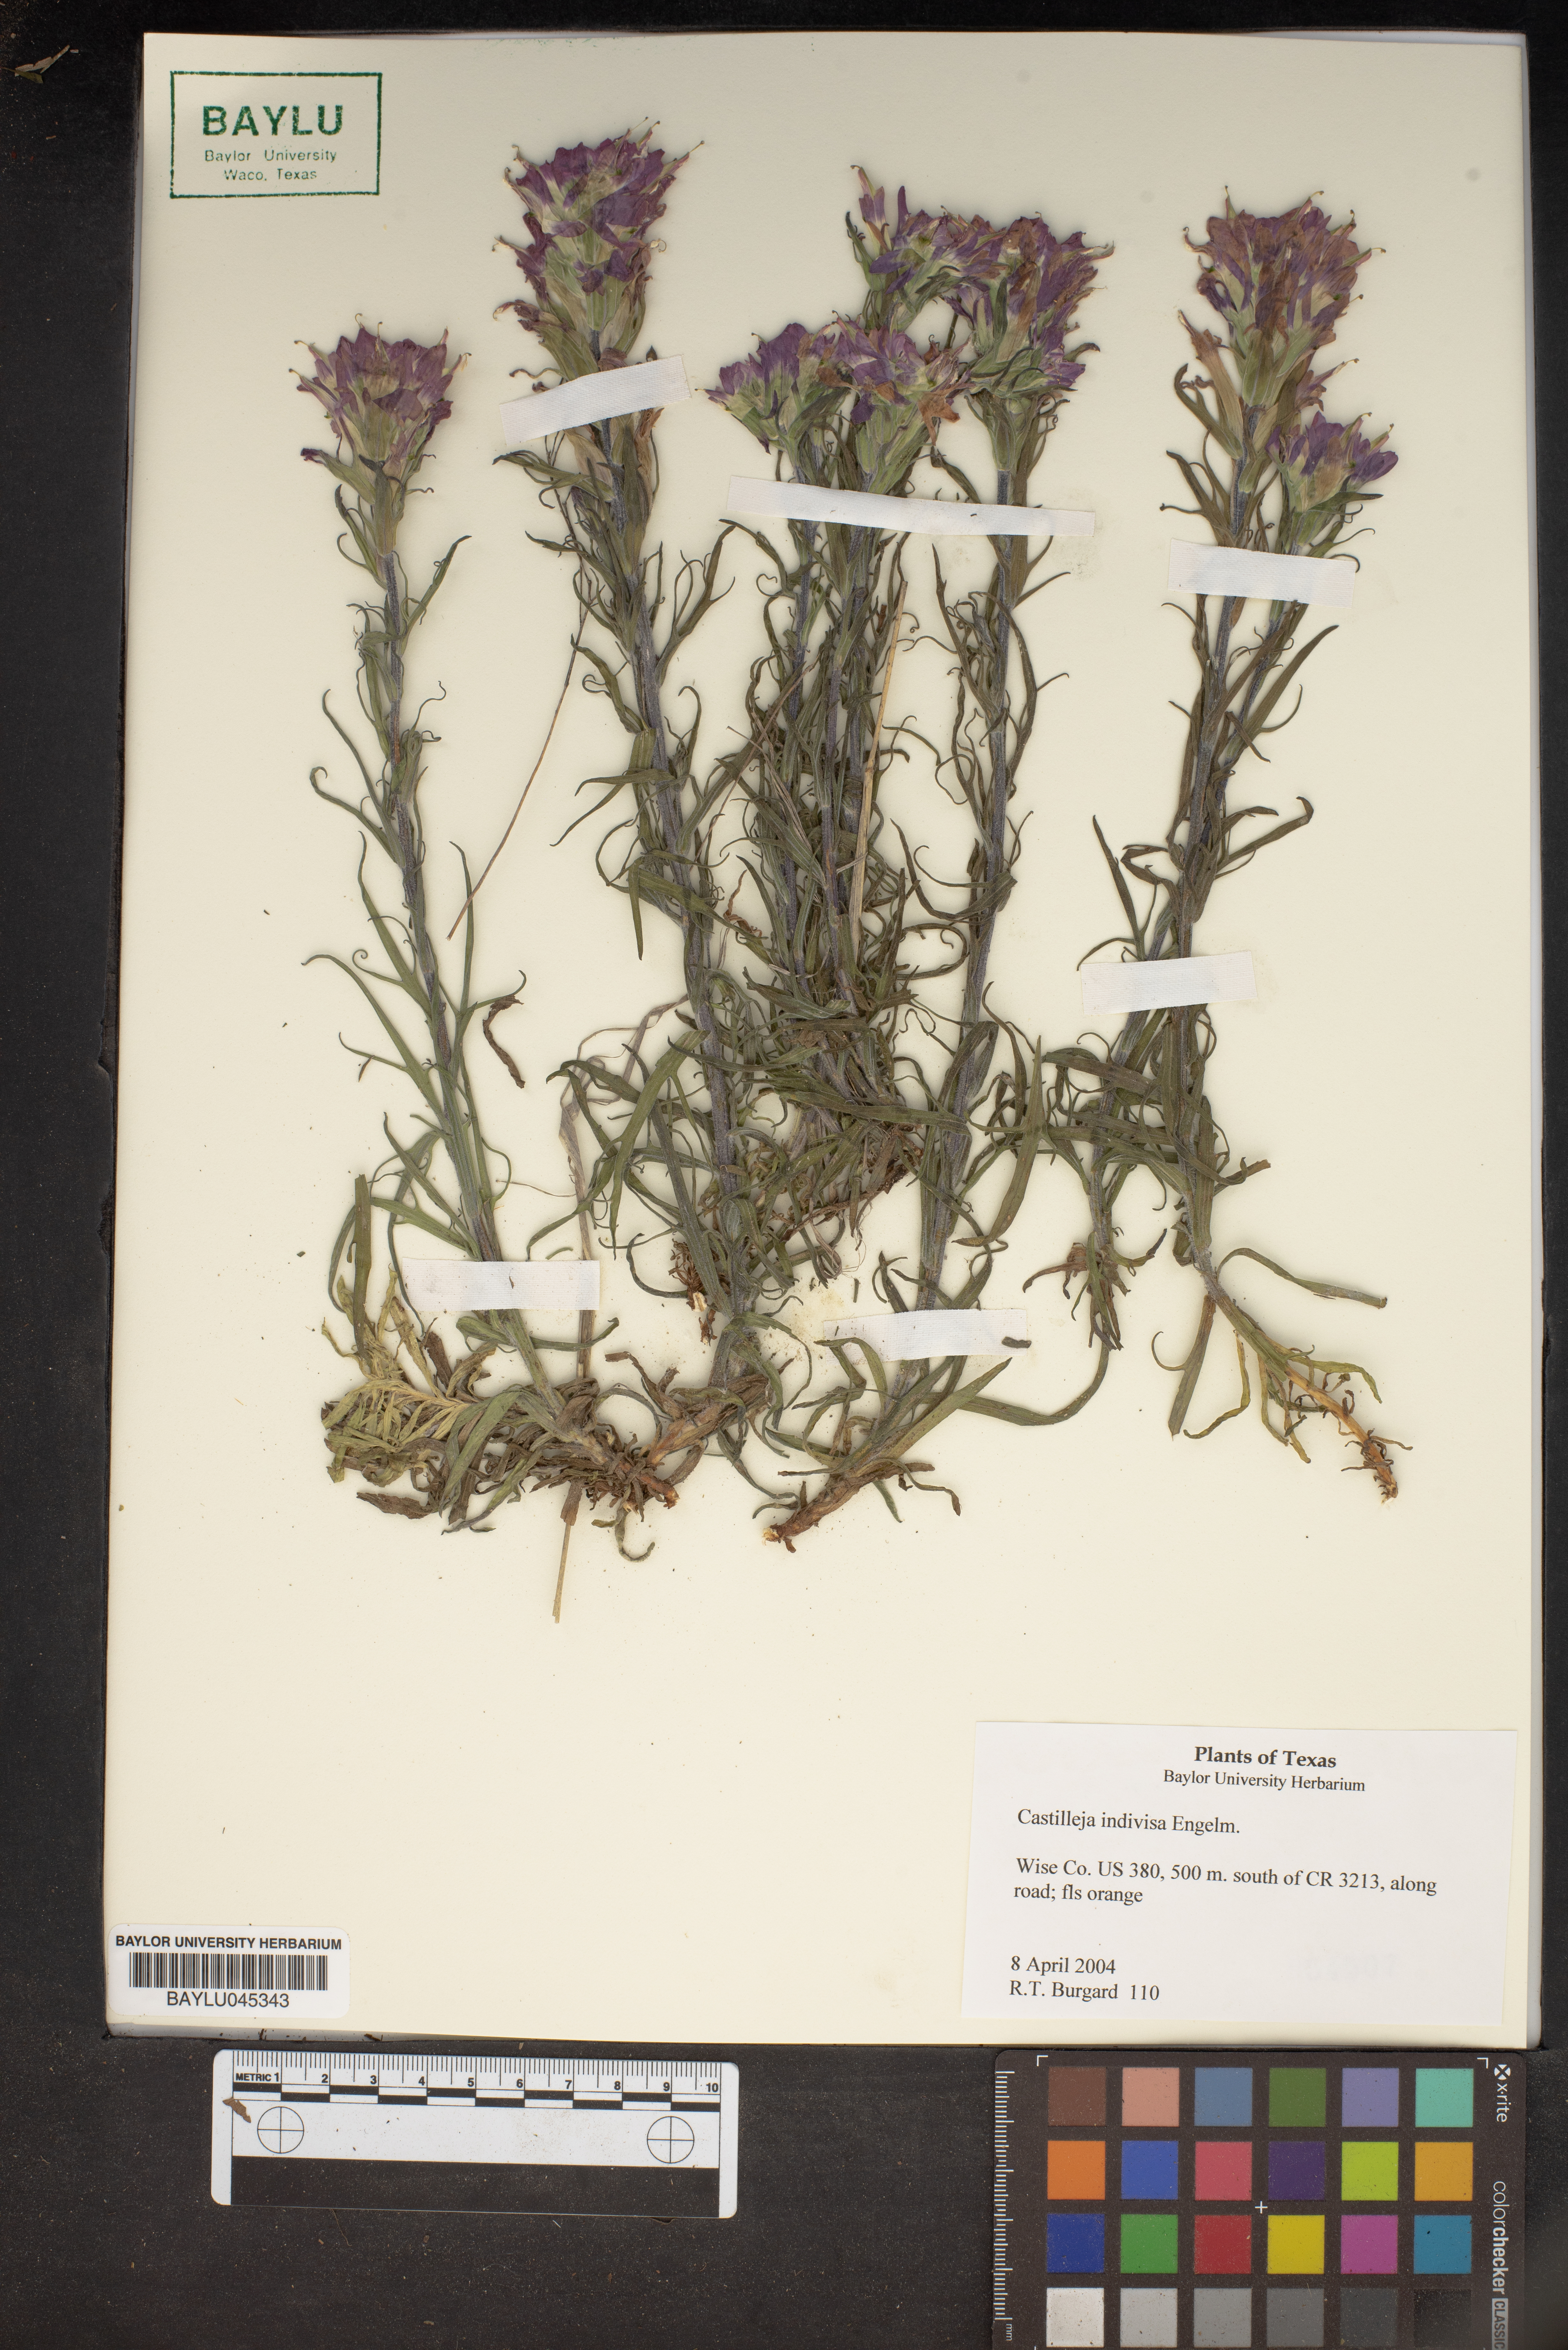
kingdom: Plantae
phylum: Tracheophyta
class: Magnoliopsida
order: Lamiales
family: Orobanchaceae
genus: Castilleja
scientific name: Castilleja indivisa
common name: Texas paintbrush
